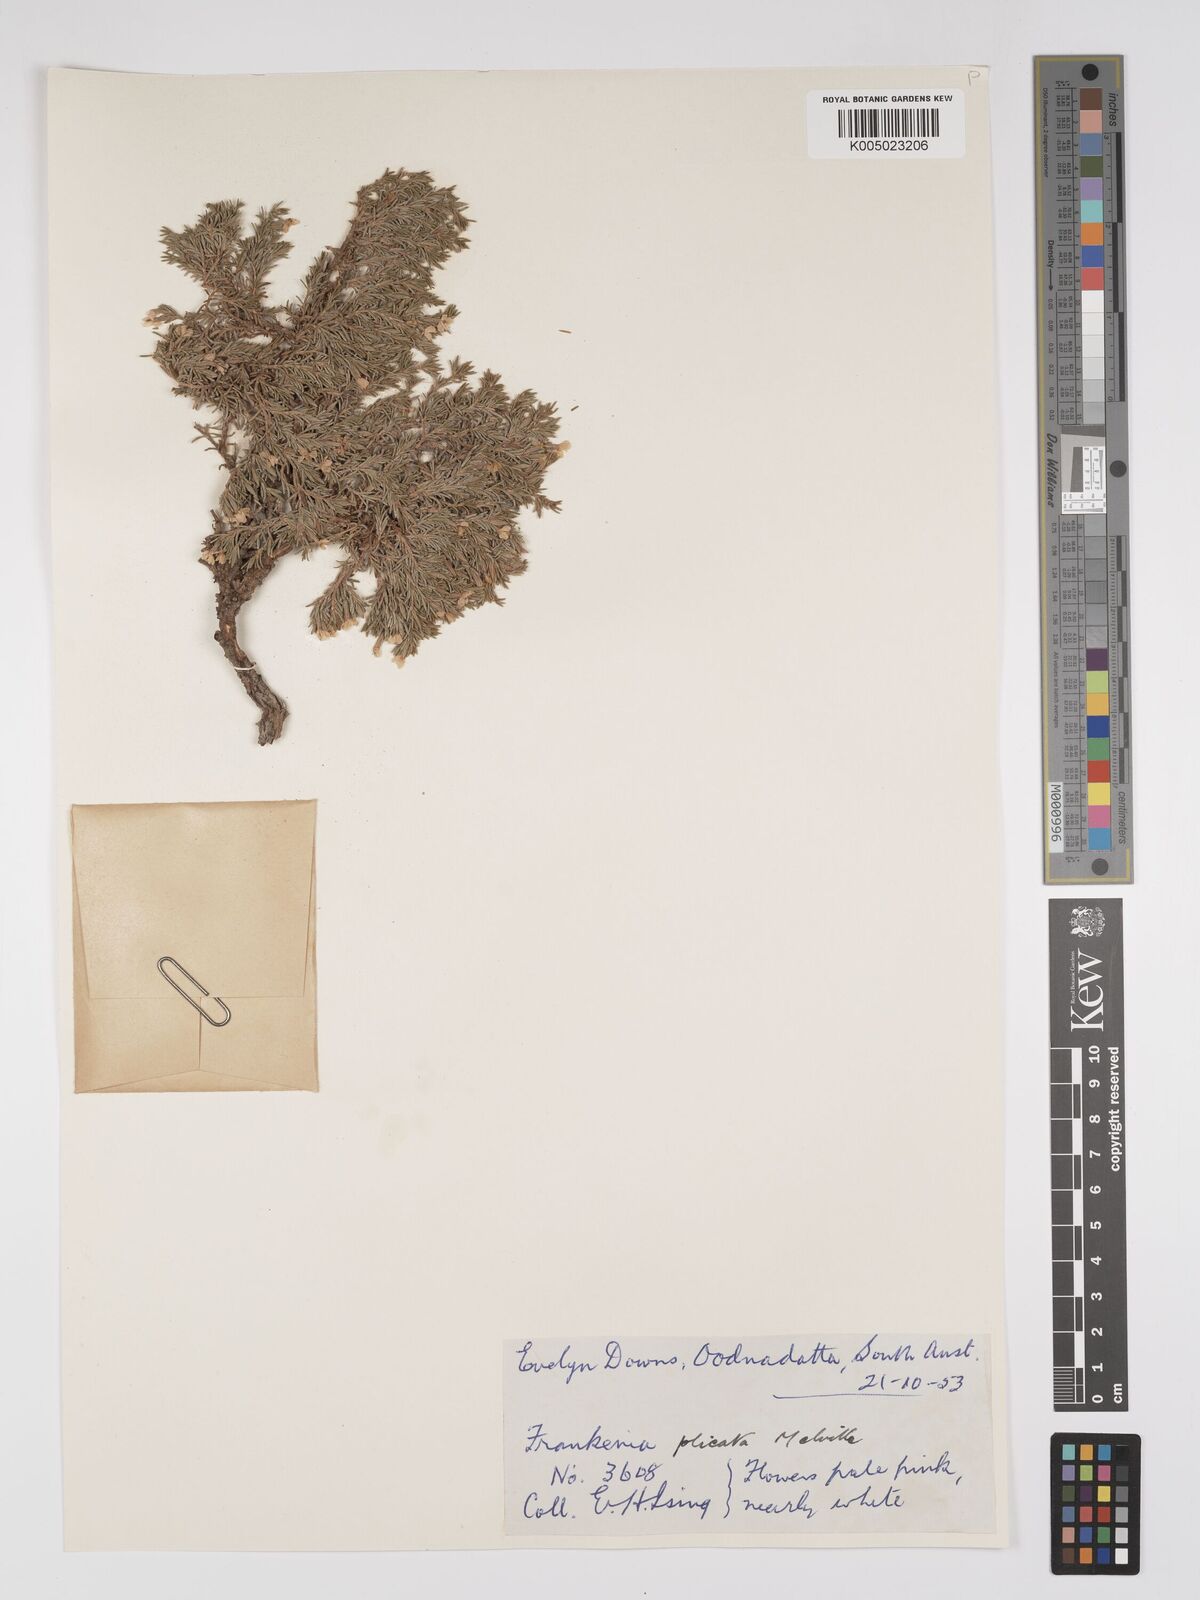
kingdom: Plantae
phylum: Tracheophyta
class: Magnoliopsida
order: Caryophyllales
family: Frankeniaceae
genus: Frankenia
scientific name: Frankenia plicata
